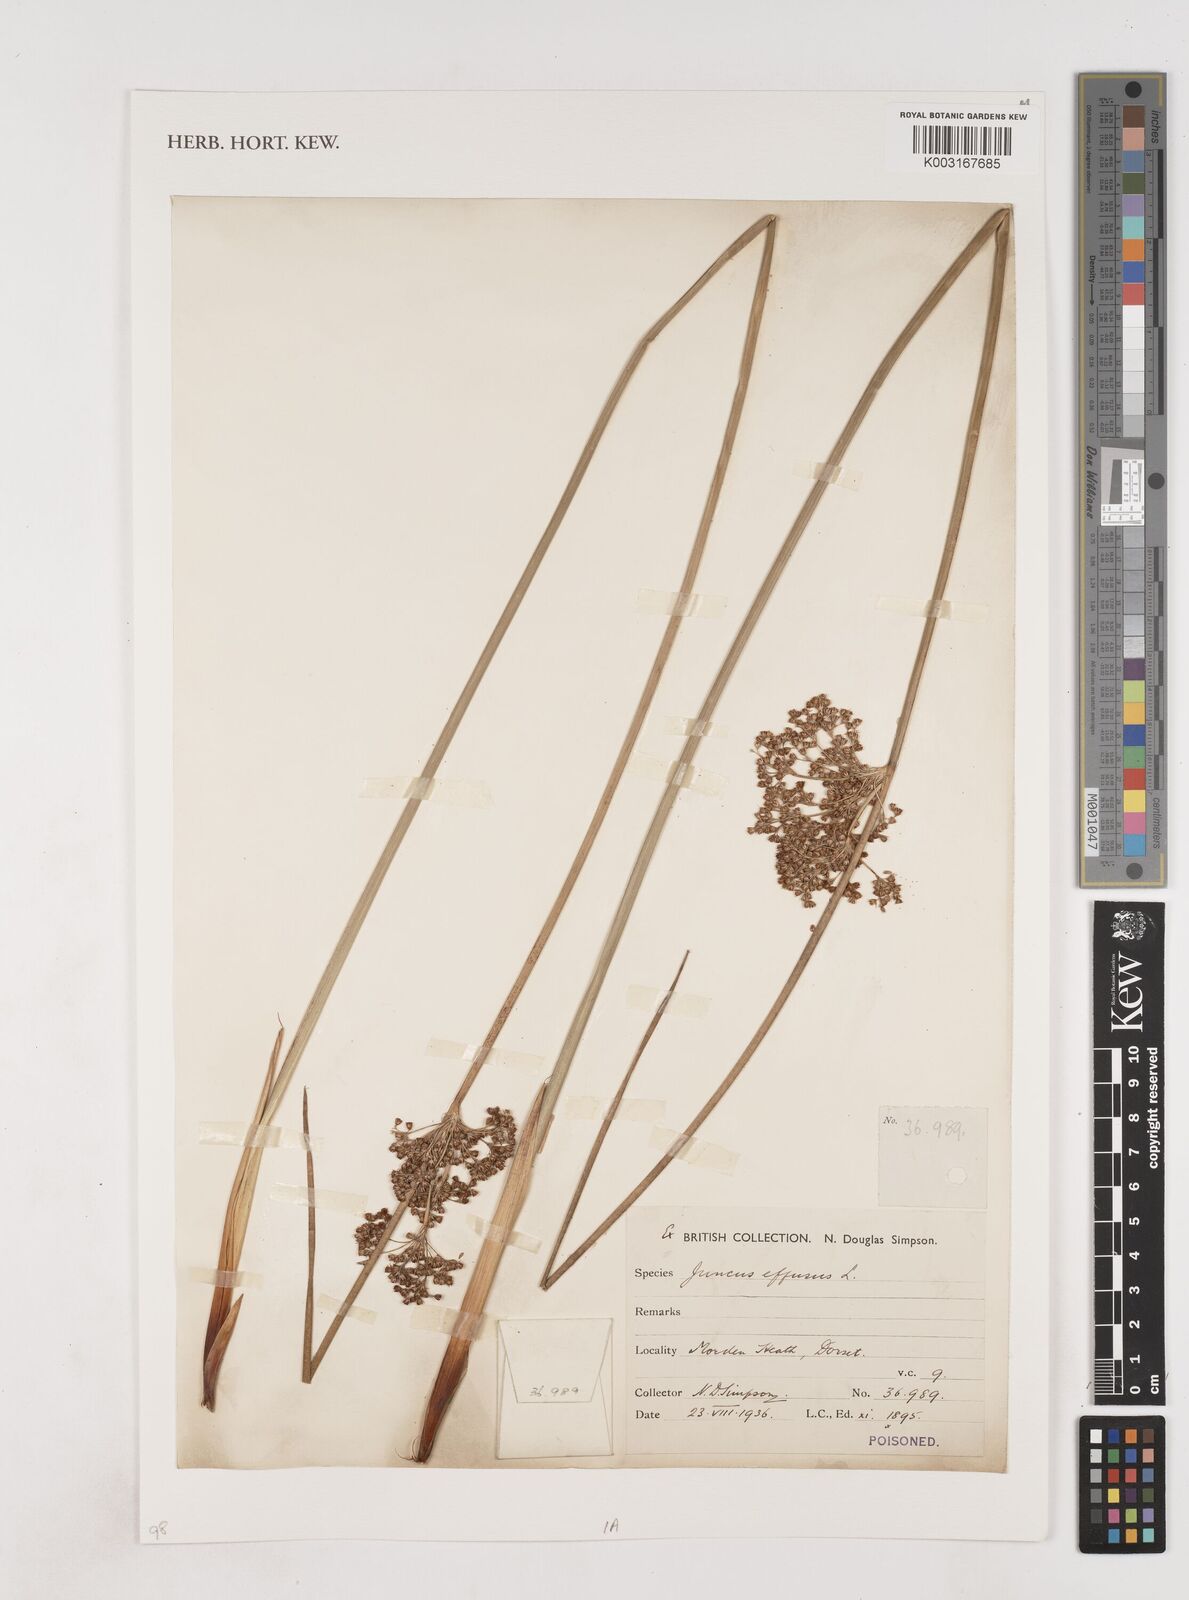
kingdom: Plantae
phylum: Tracheophyta
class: Liliopsida
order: Poales
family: Juncaceae
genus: Juncus
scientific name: Juncus effusus
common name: Soft rush
